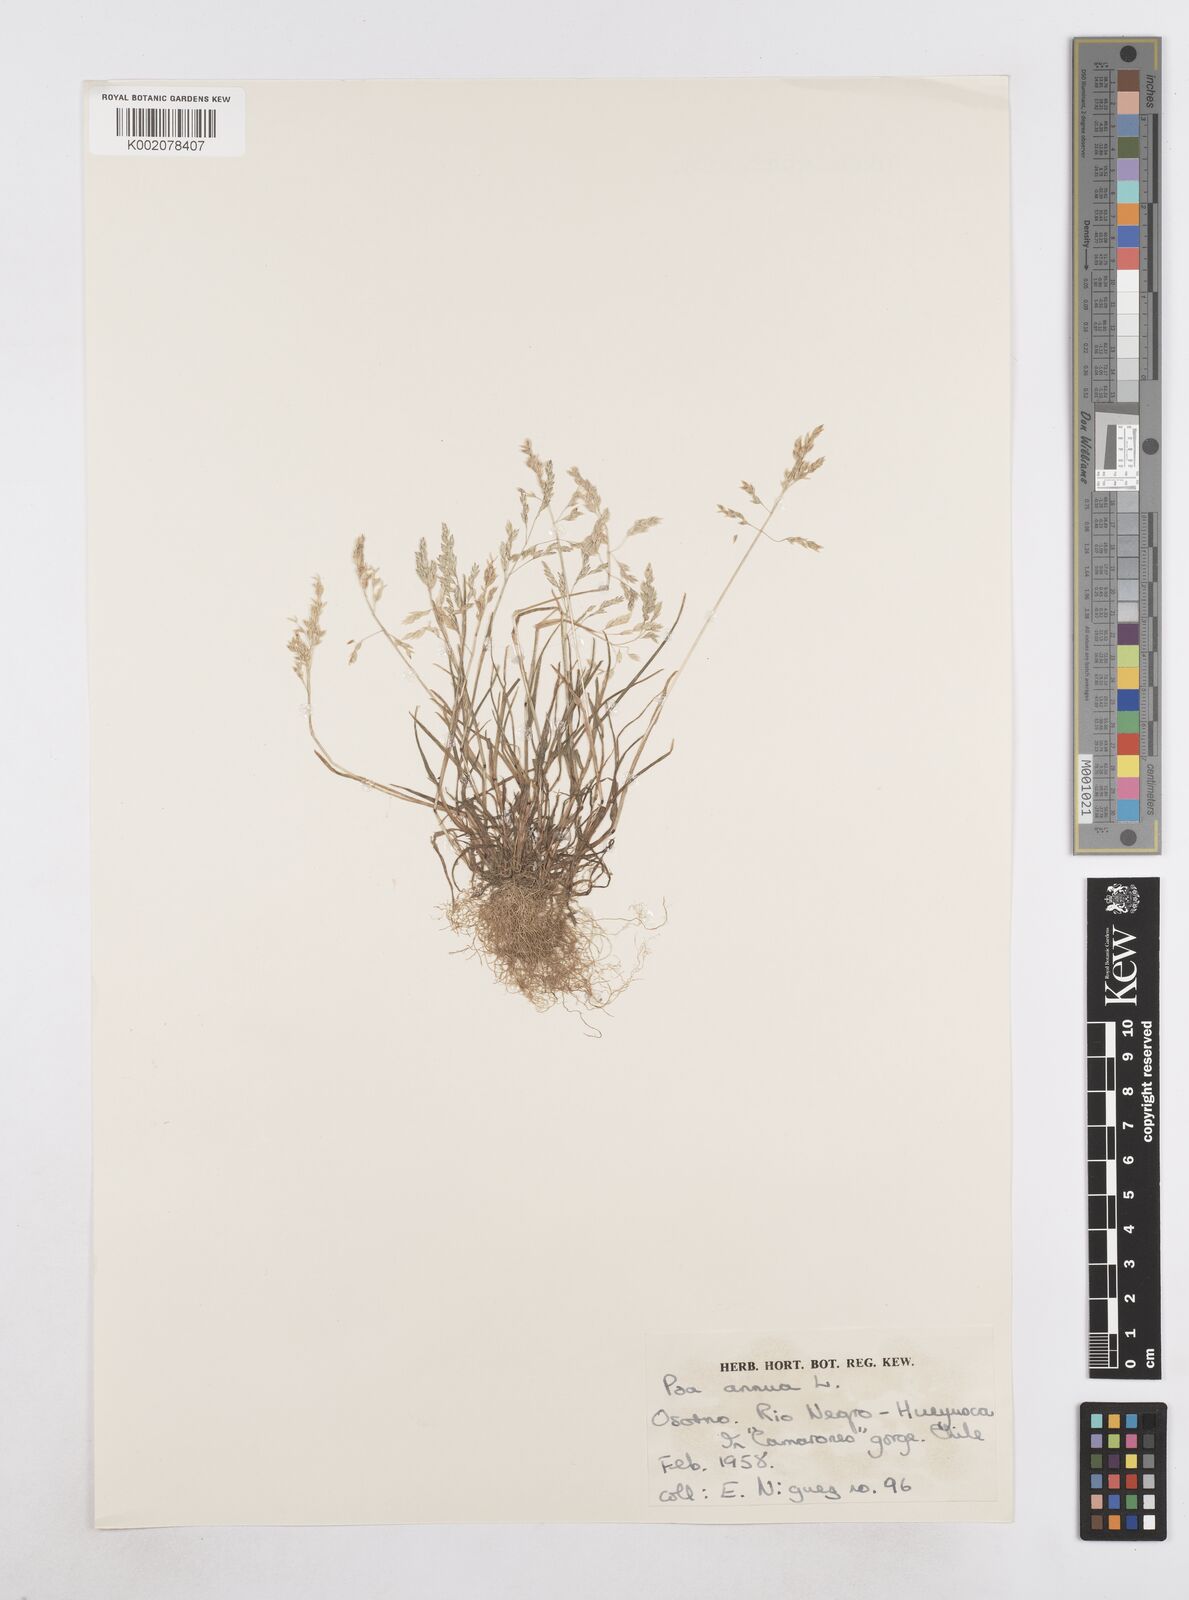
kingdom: Plantae
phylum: Tracheophyta
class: Liliopsida
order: Poales
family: Poaceae
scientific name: Poaceae
